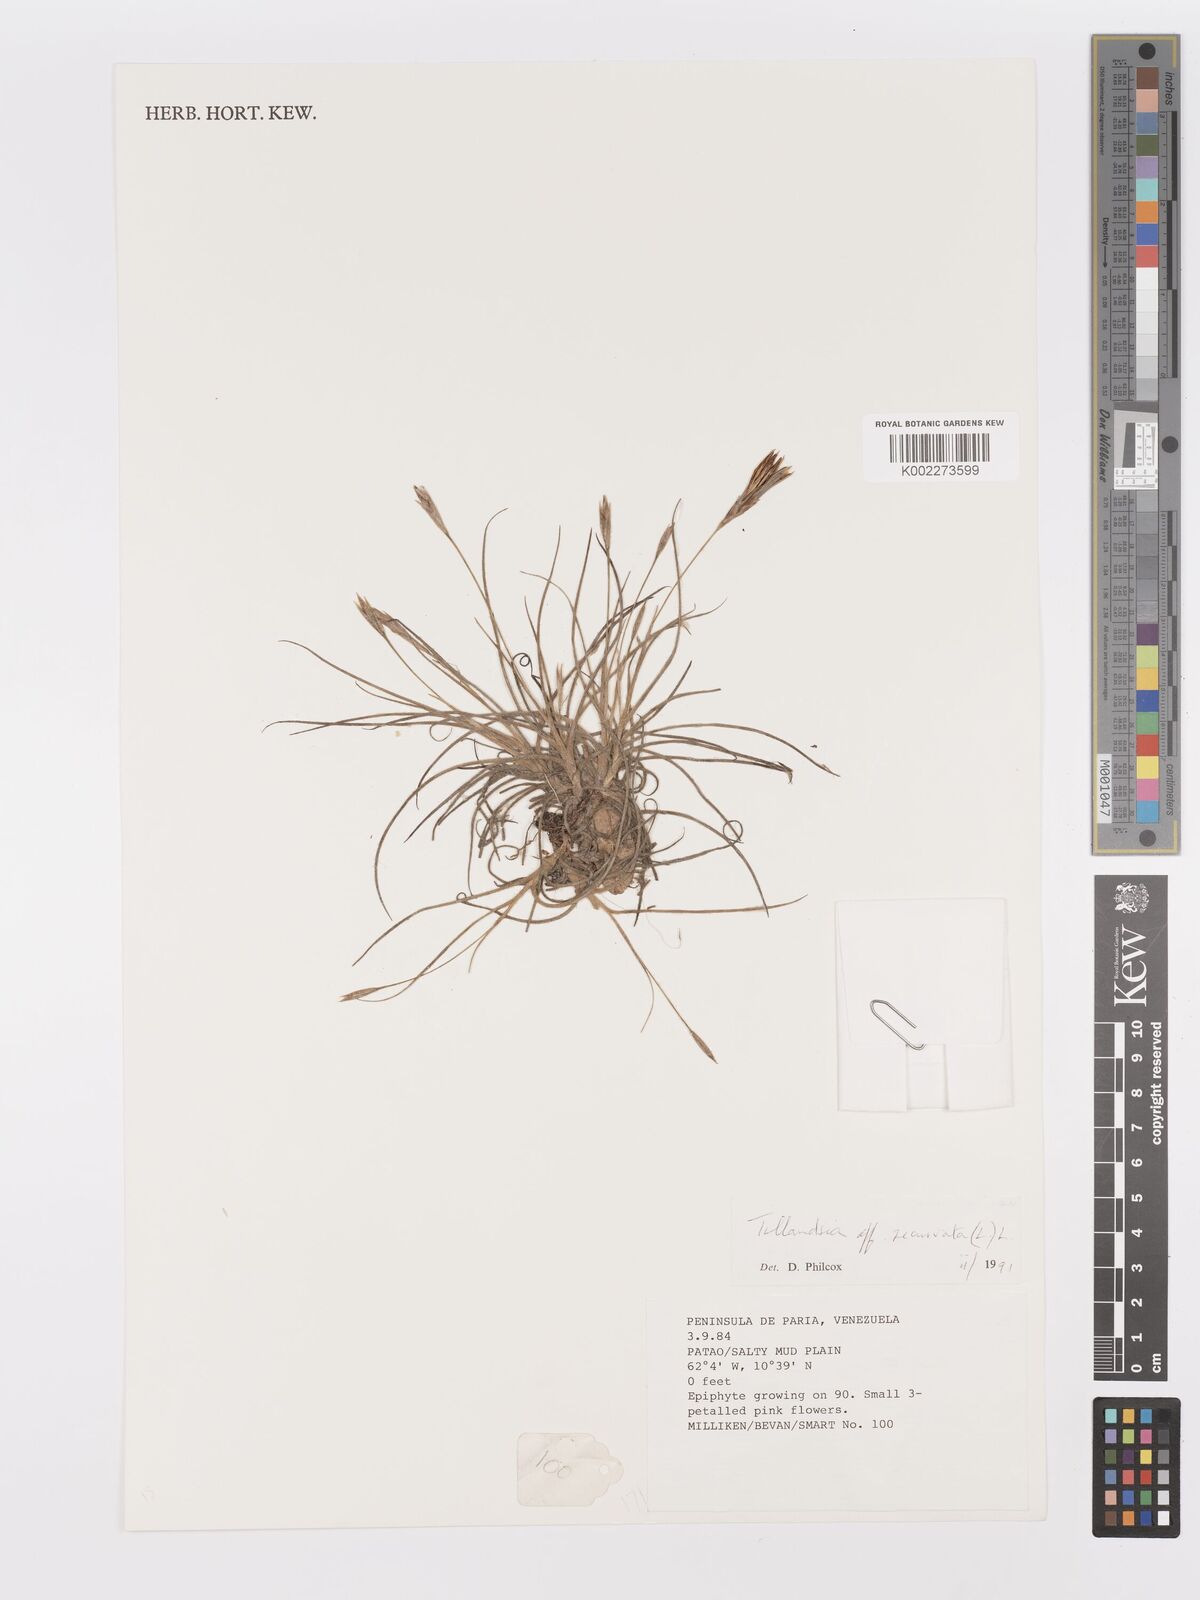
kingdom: Plantae
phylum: Tracheophyta
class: Liliopsida
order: Poales
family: Bromeliaceae
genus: Tillandsia
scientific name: Tillandsia recurvata
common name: Small ballmoss
